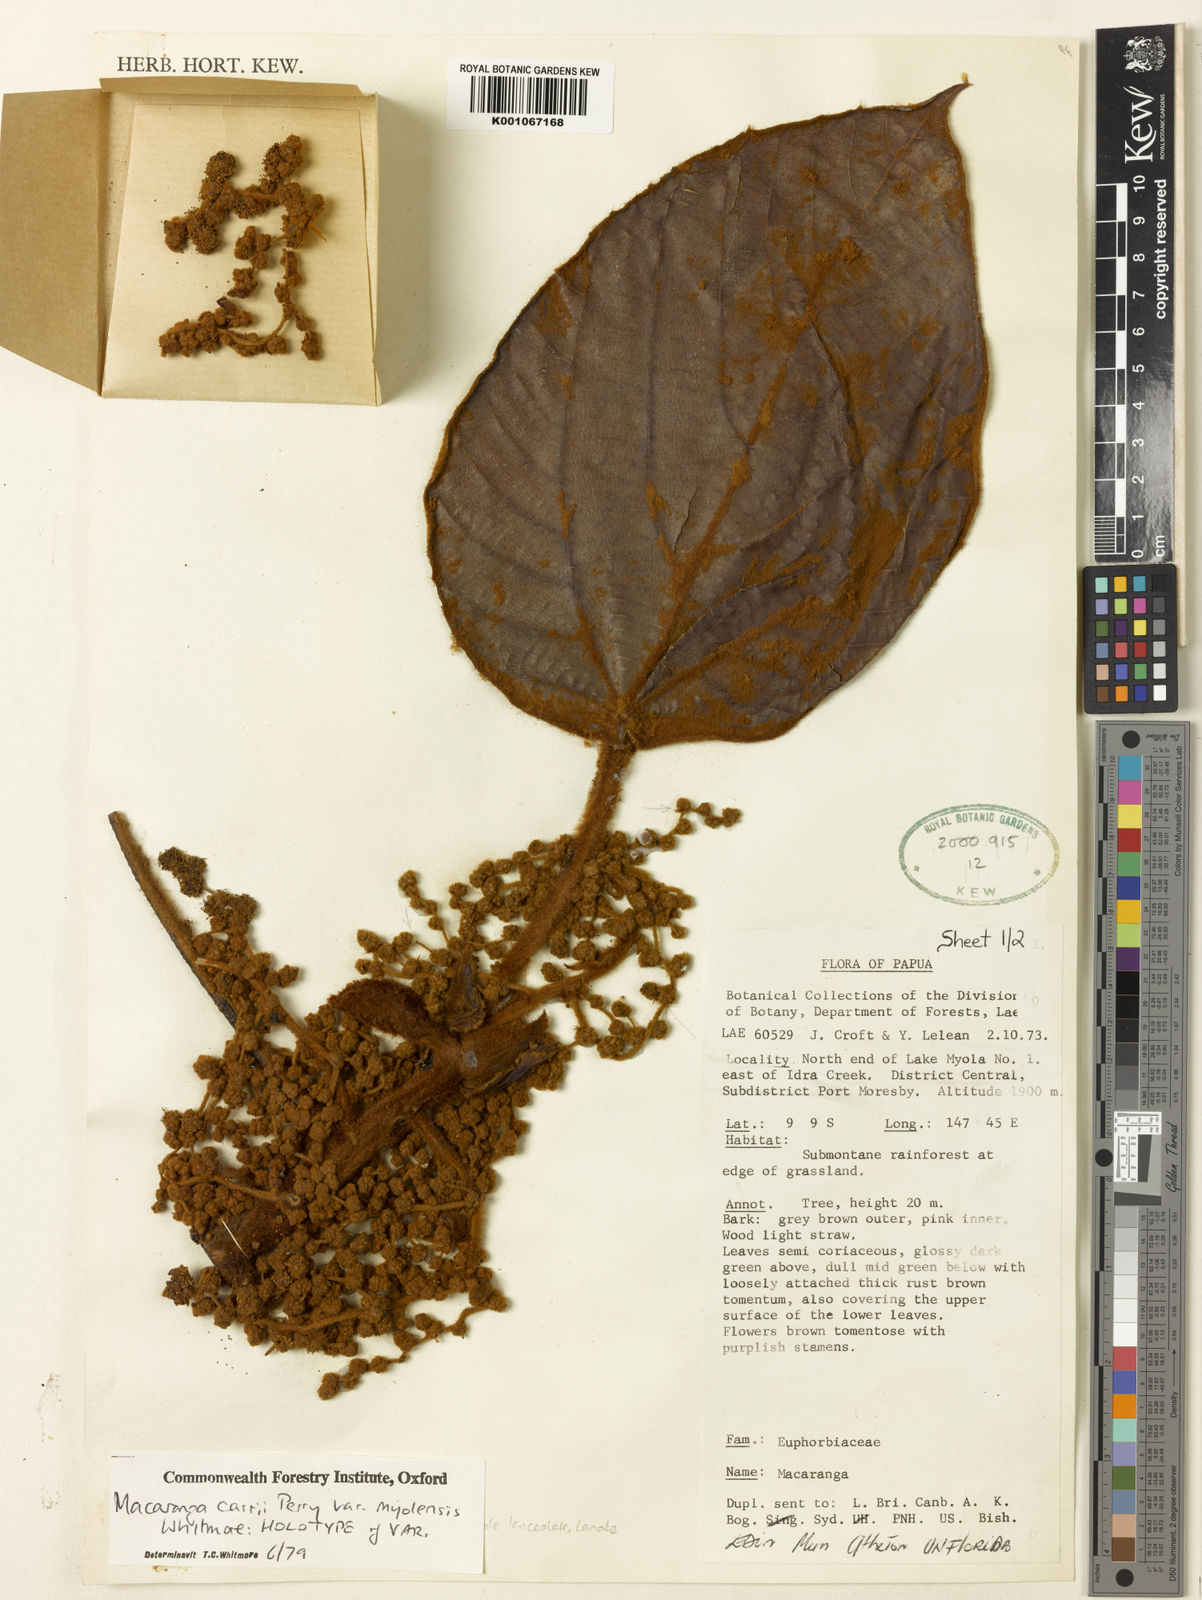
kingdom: Plantae
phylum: Tracheophyta
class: Magnoliopsida
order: Malpighiales
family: Euphorbiaceae
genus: Macaranga
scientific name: Macaranga carrii
